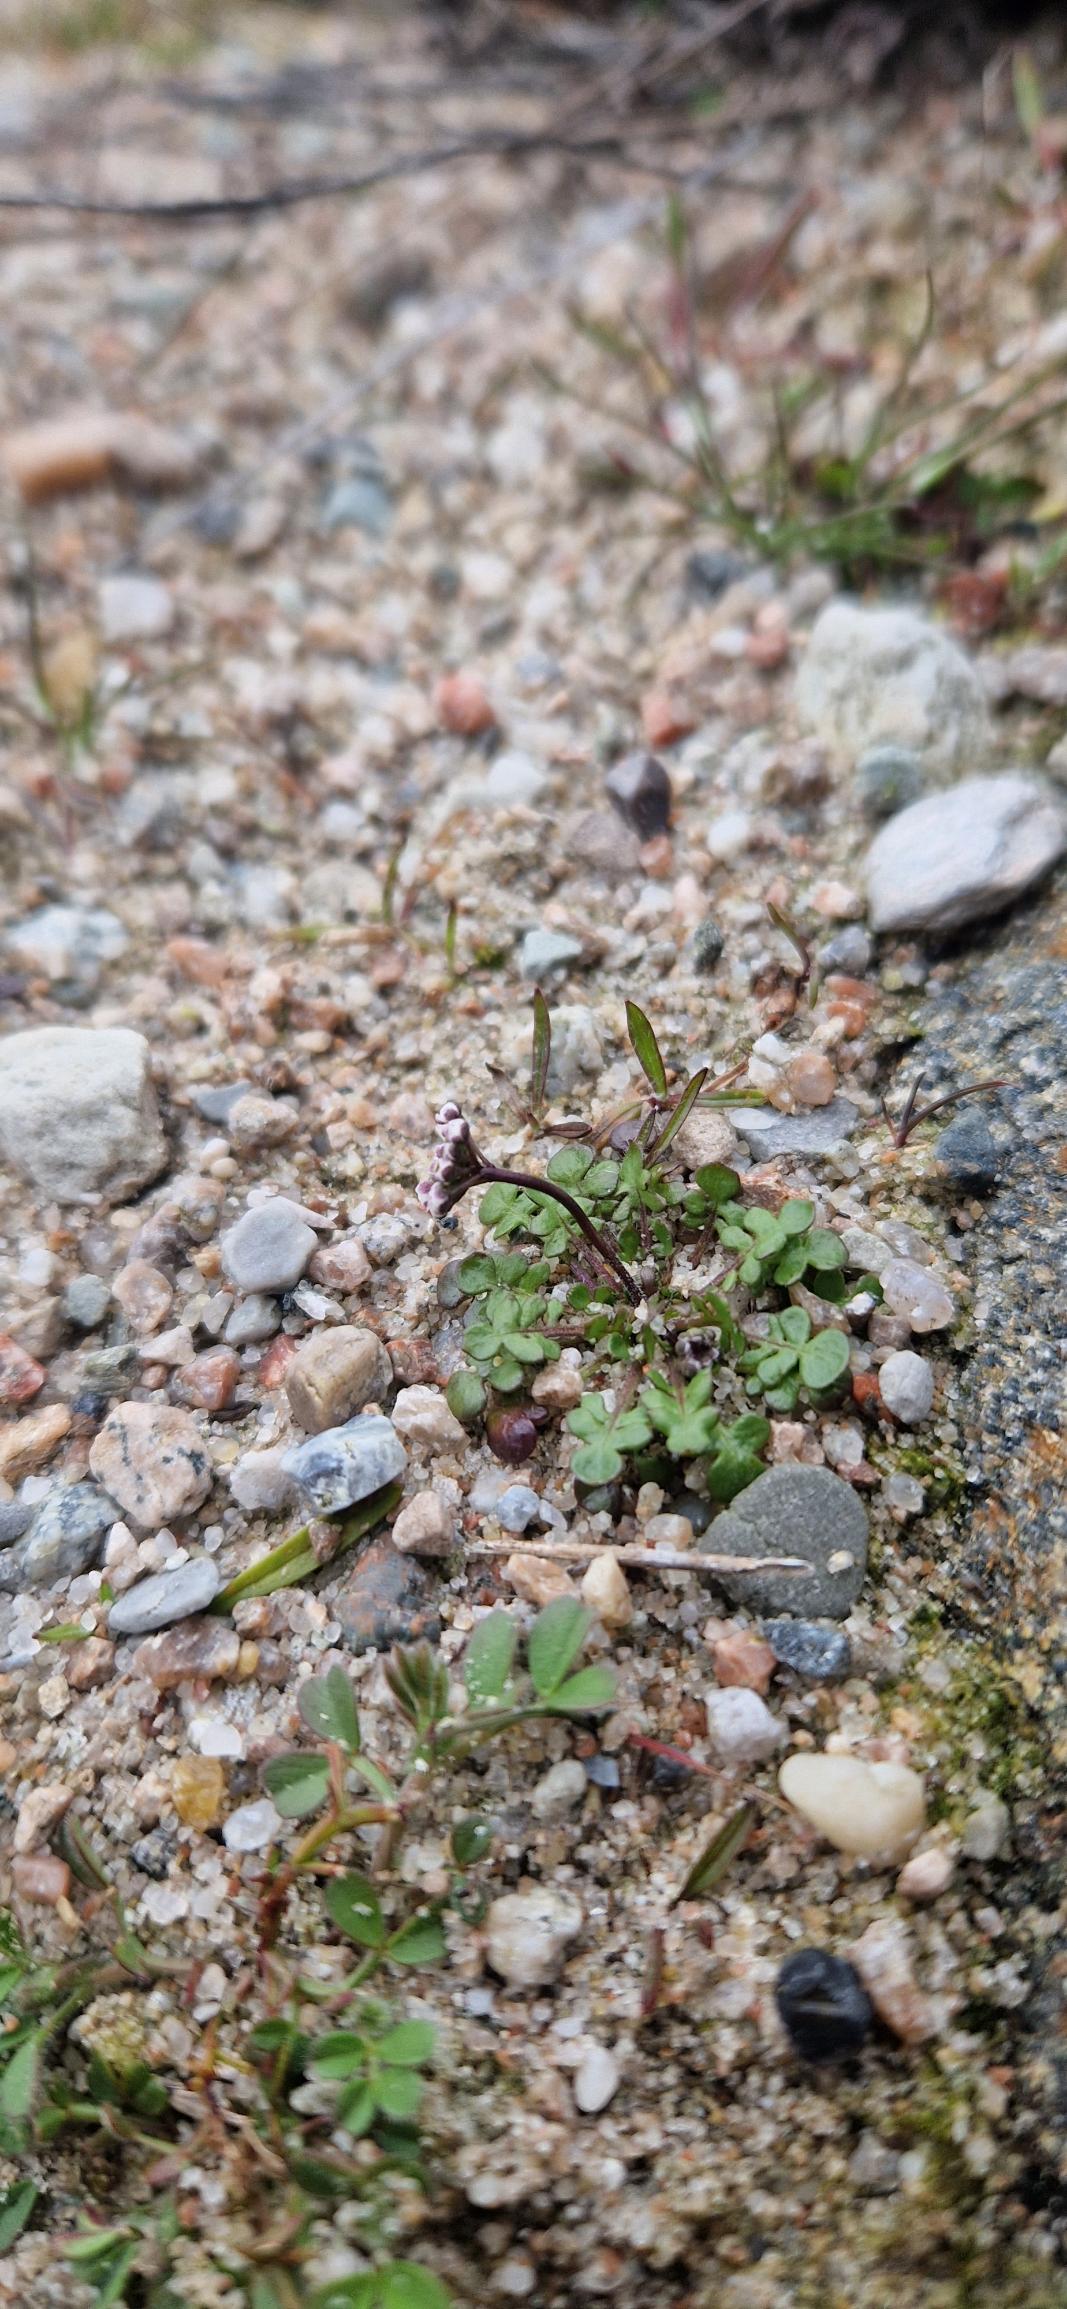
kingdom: Plantae
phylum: Tracheophyta
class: Magnoliopsida
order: Brassicales
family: Brassicaceae
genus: Teesdalia
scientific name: Teesdalia nudicaulis
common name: Flipkrave
